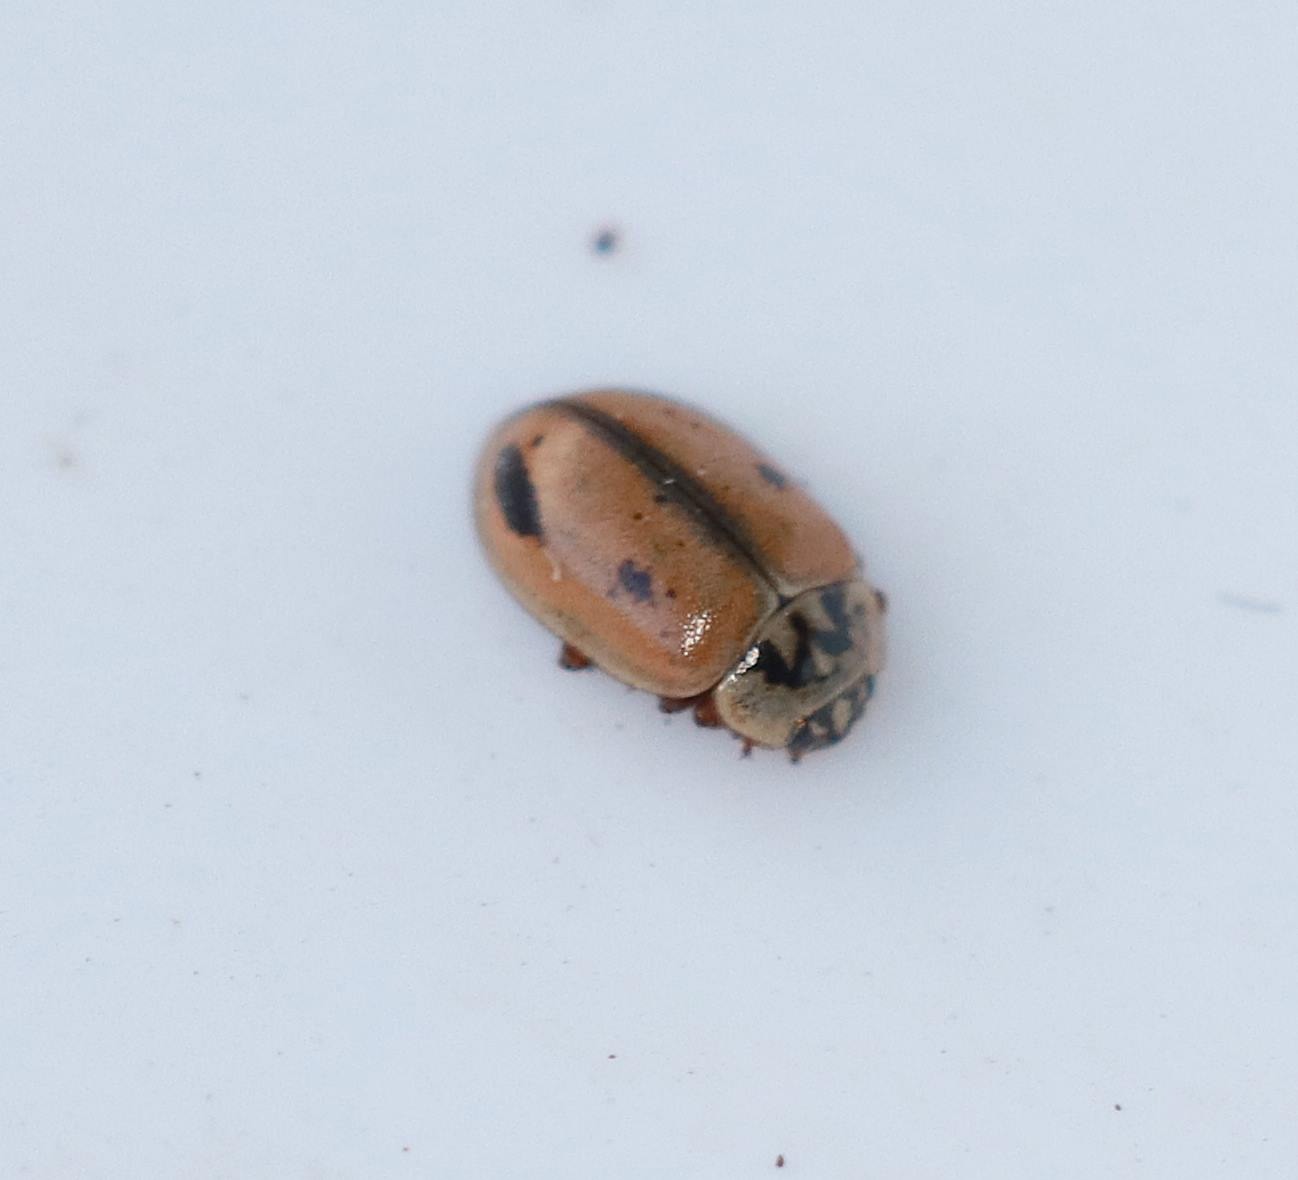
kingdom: Animalia
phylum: Arthropoda
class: Insecta
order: Coleoptera
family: Coccinellidae
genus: Aphidecta
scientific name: Aphidecta obliterata
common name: Uplettet mariehøne
